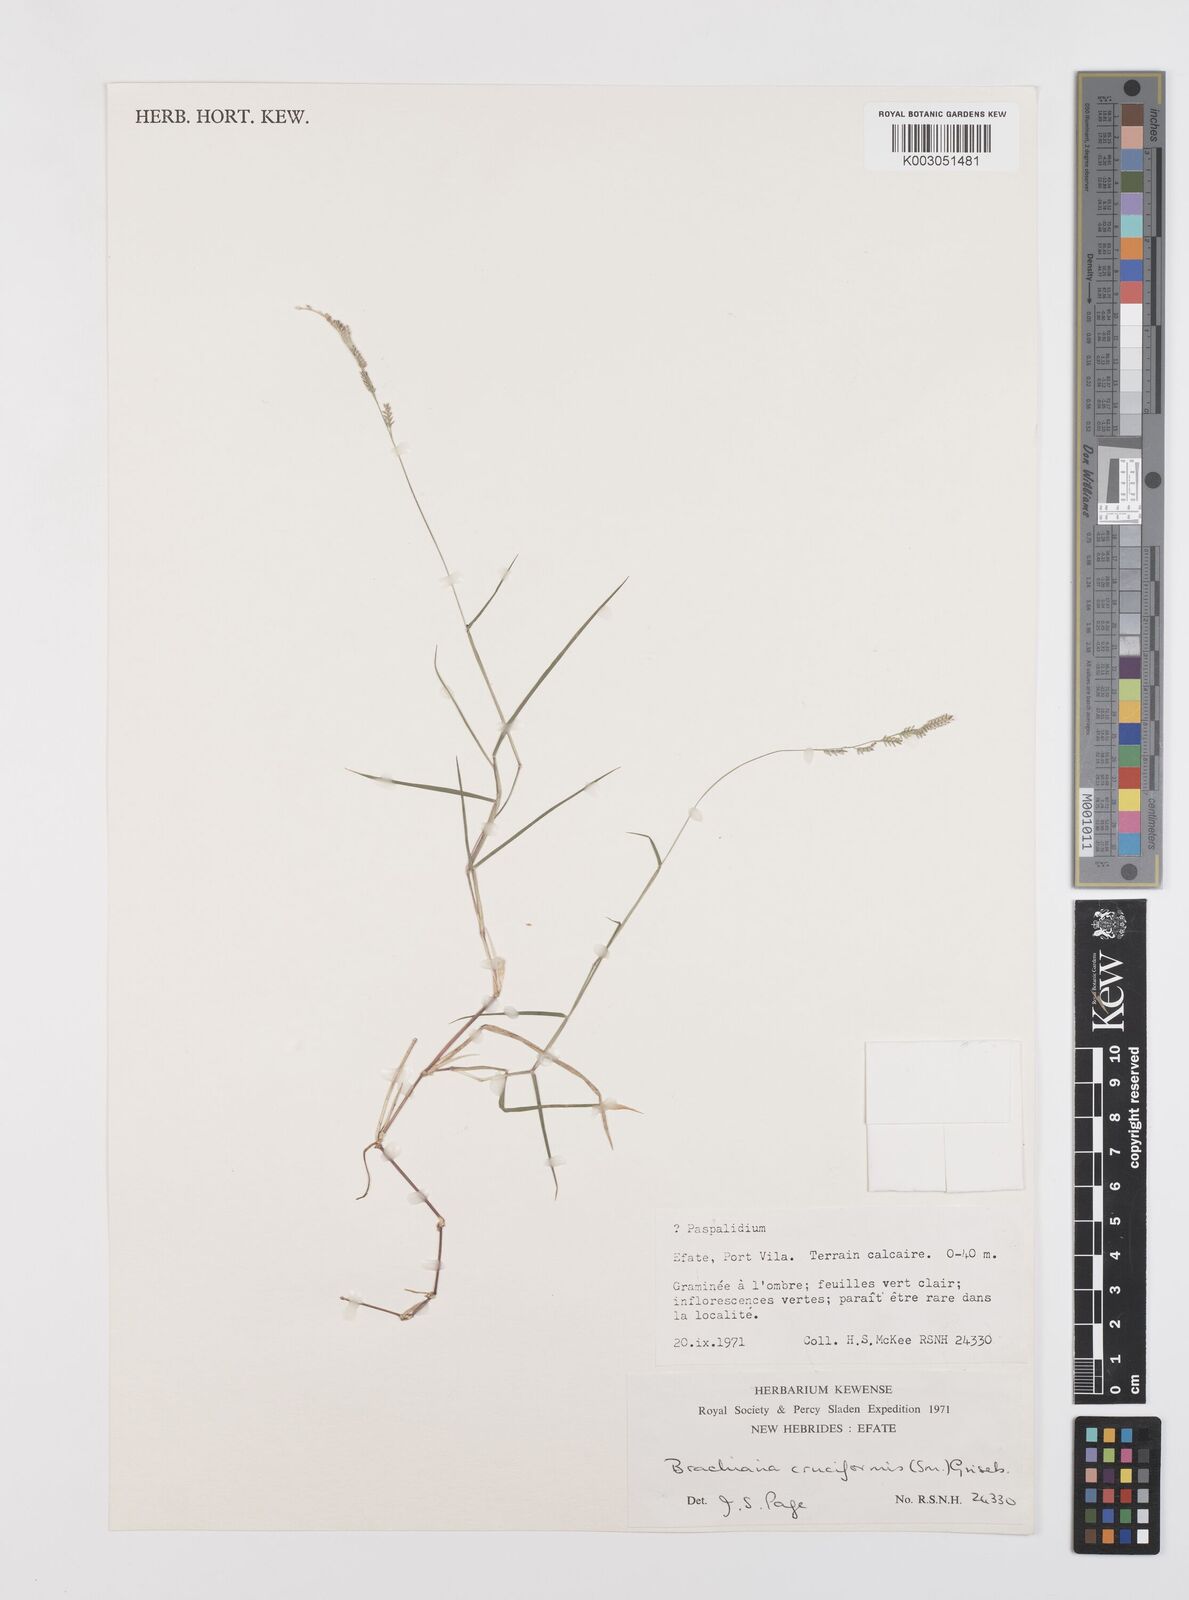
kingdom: Plantae
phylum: Tracheophyta
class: Liliopsida
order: Poales
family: Poaceae
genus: Moorochloa
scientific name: Moorochloa eruciformis
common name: Sweet signalgrass
